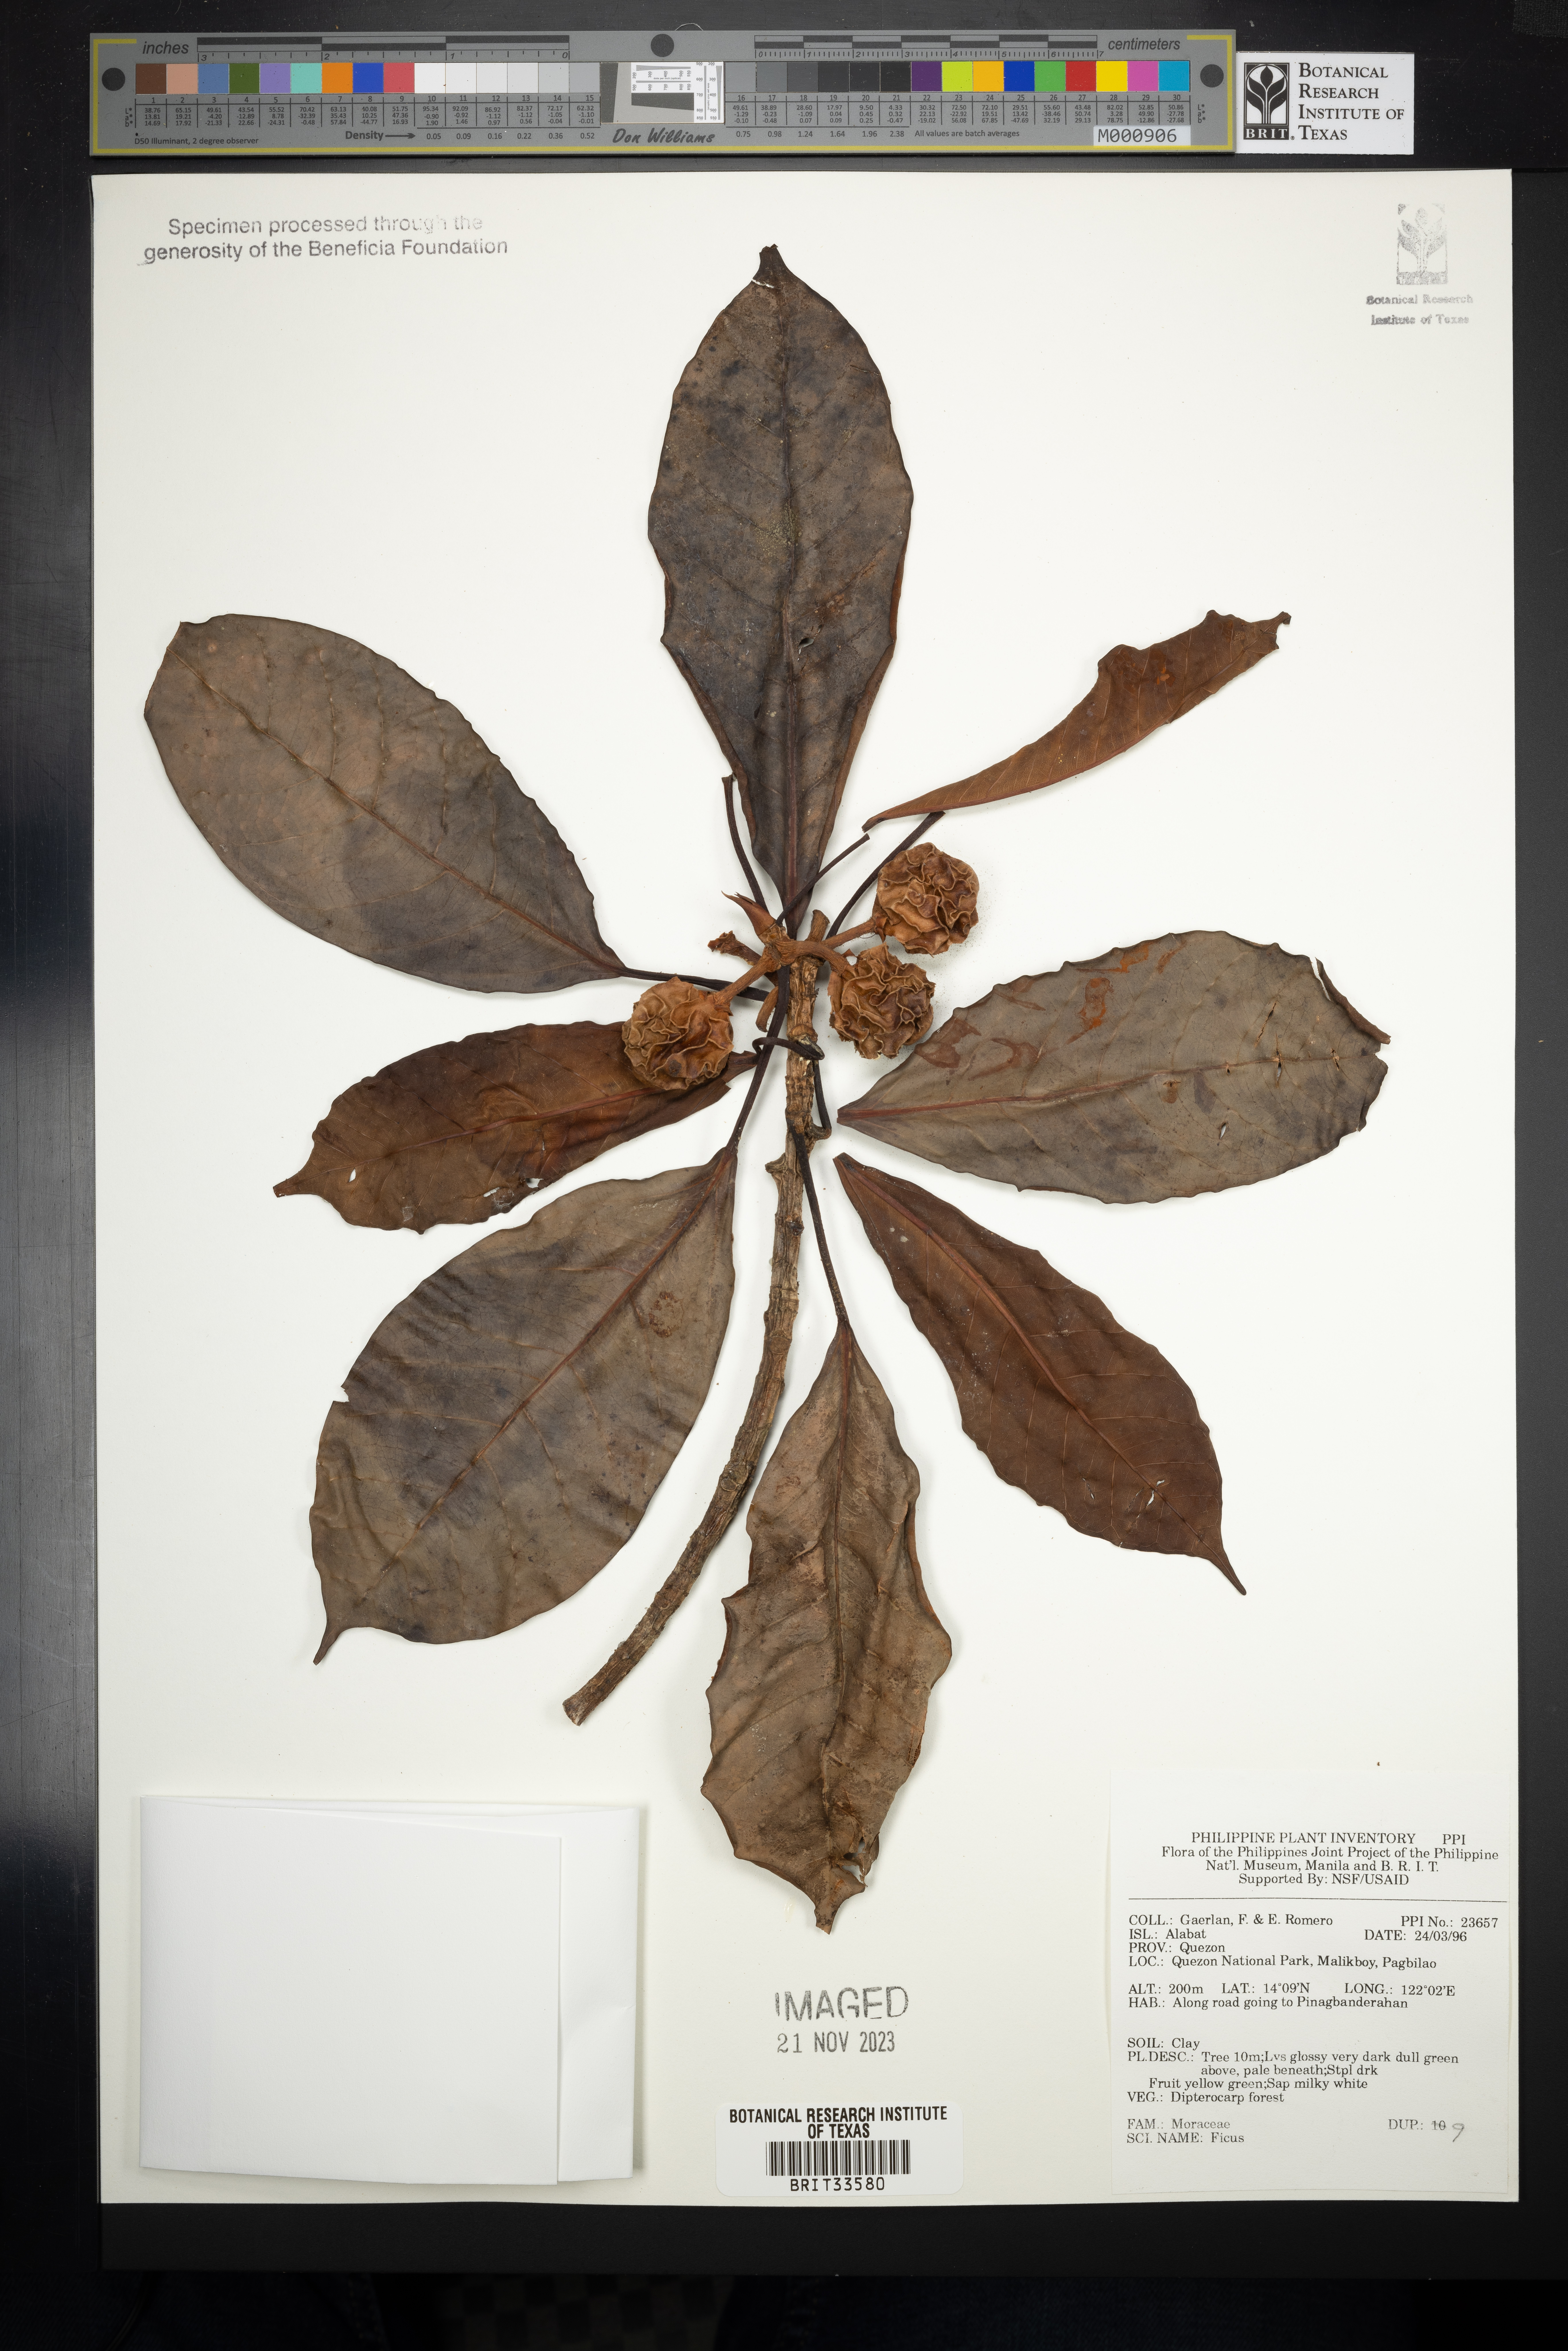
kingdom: Plantae
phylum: Tracheophyta
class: Magnoliopsida
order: Rosales
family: Moraceae
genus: Ficus
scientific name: Ficus
